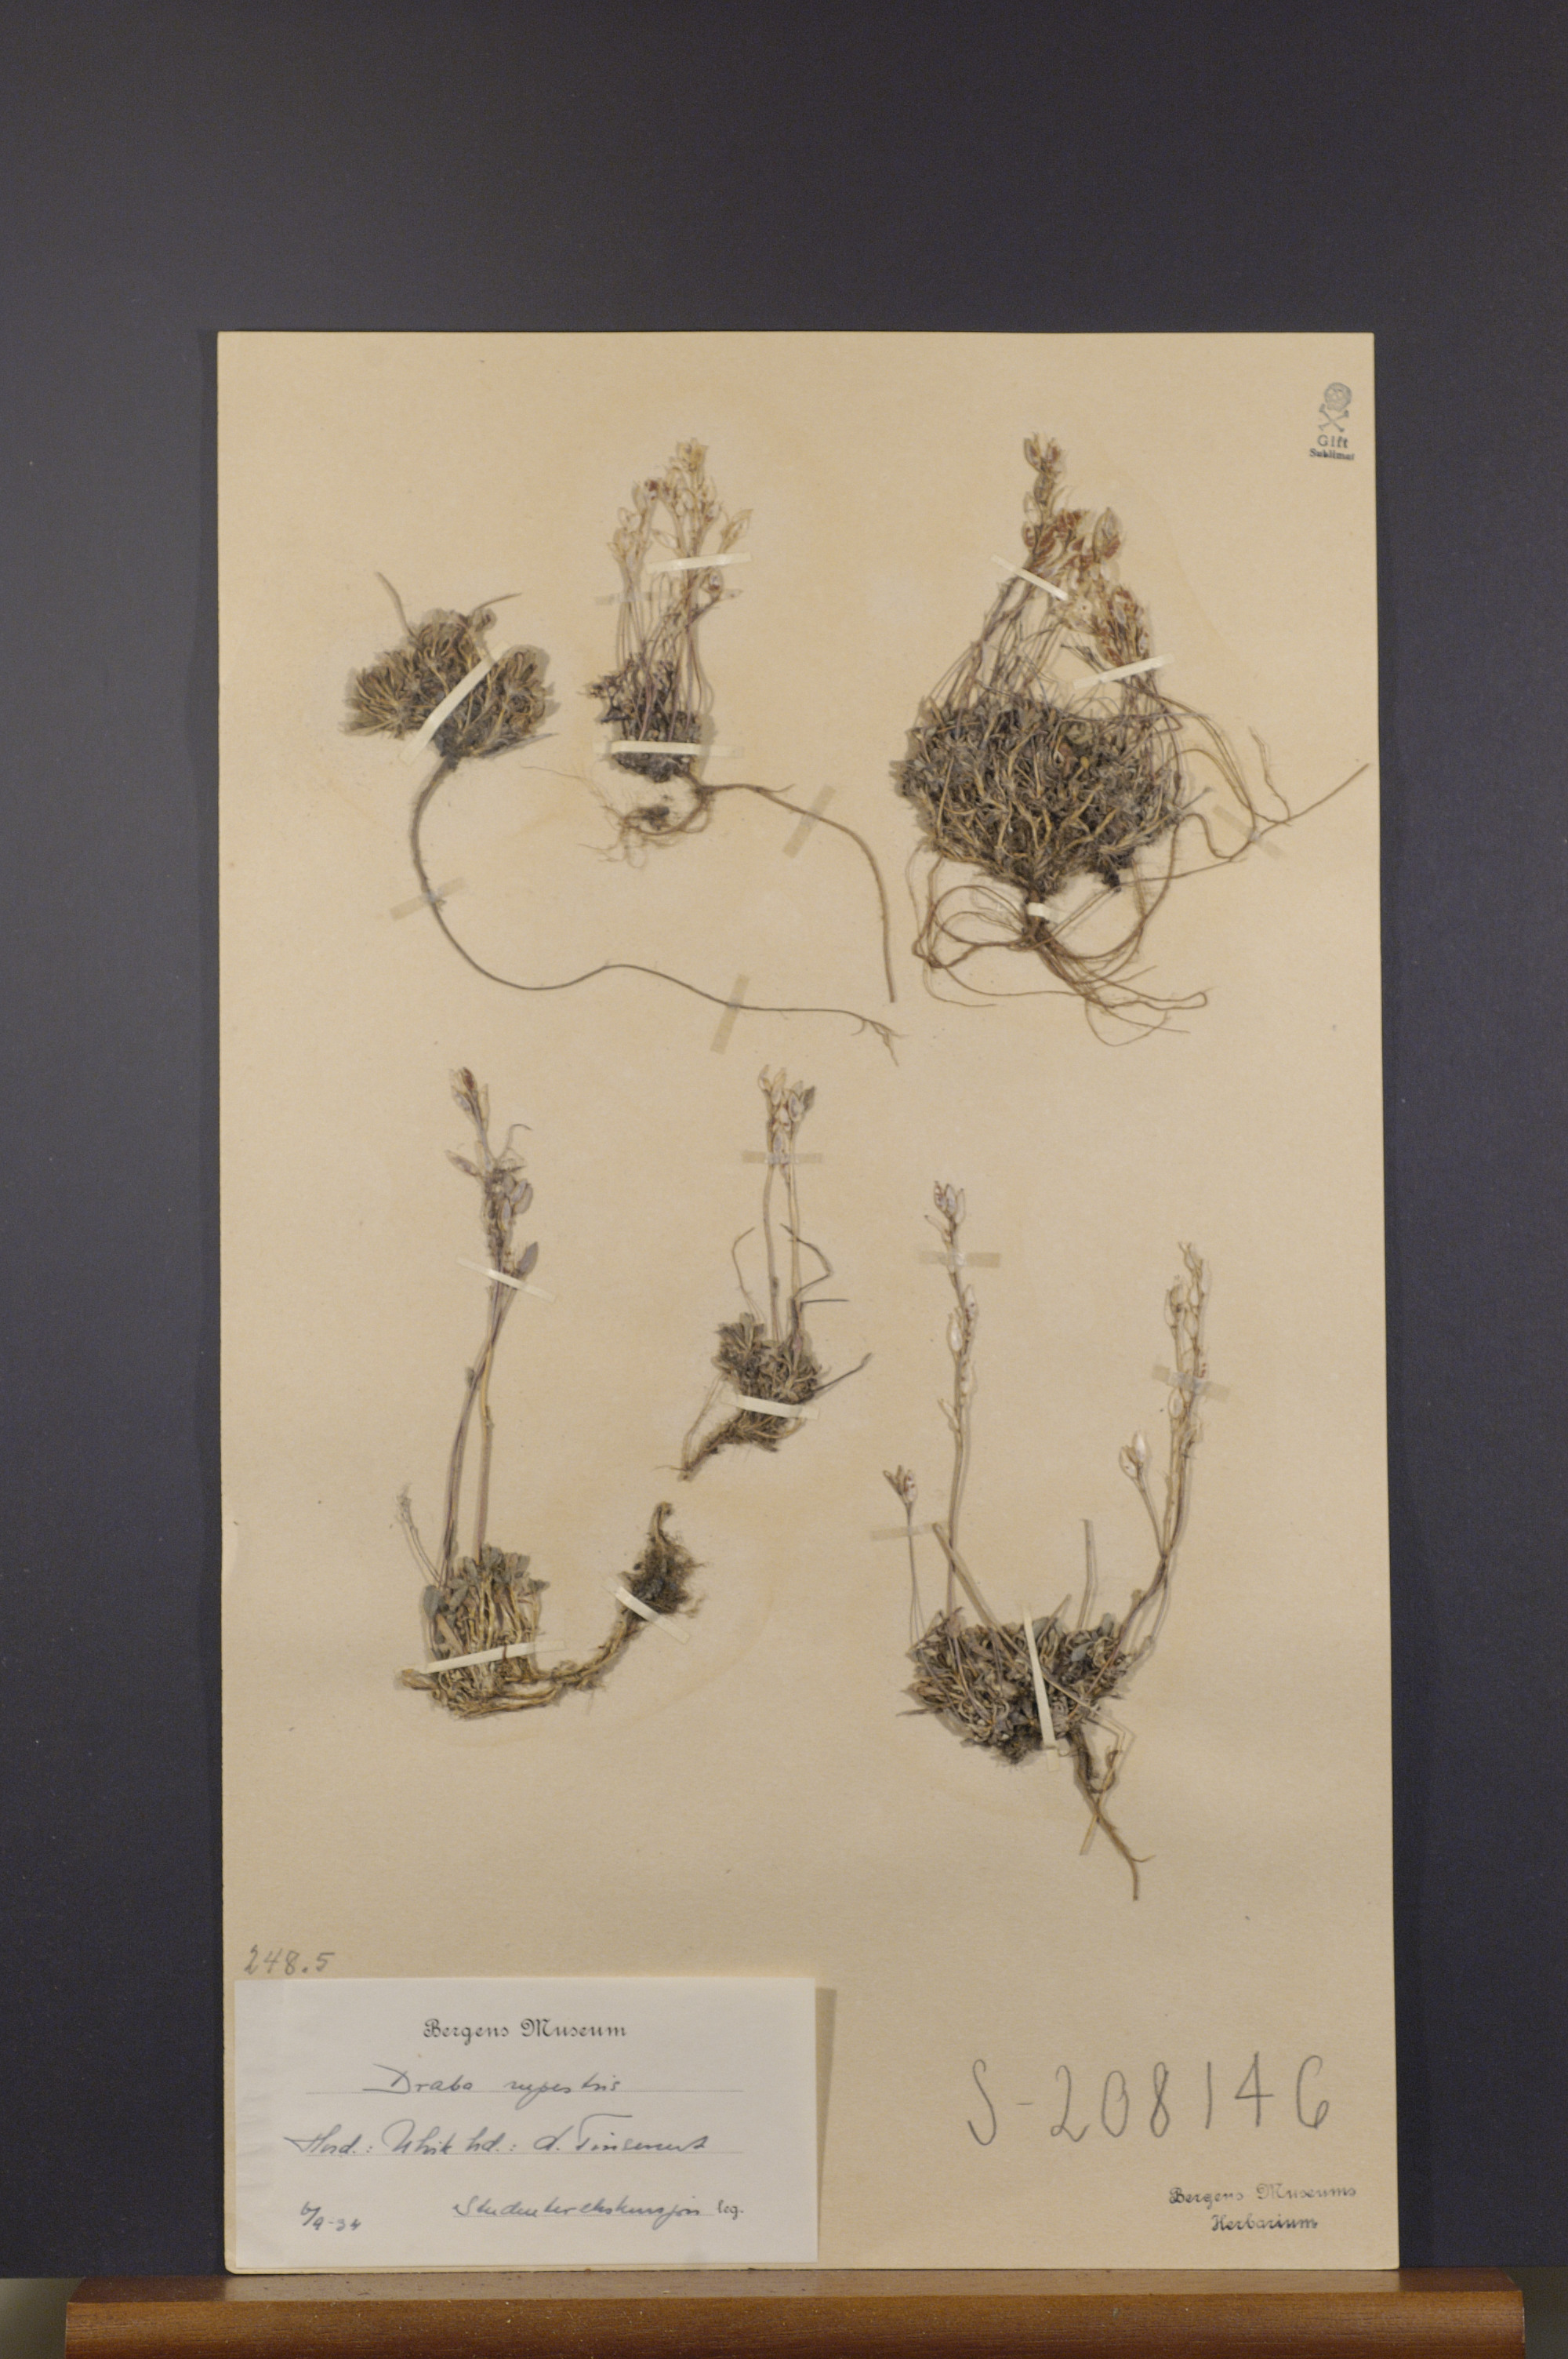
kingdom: Plantae
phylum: Tracheophyta
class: Magnoliopsida
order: Brassicales
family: Brassicaceae
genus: Draba
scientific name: Draba norvegica
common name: Rock whitlowgrass
